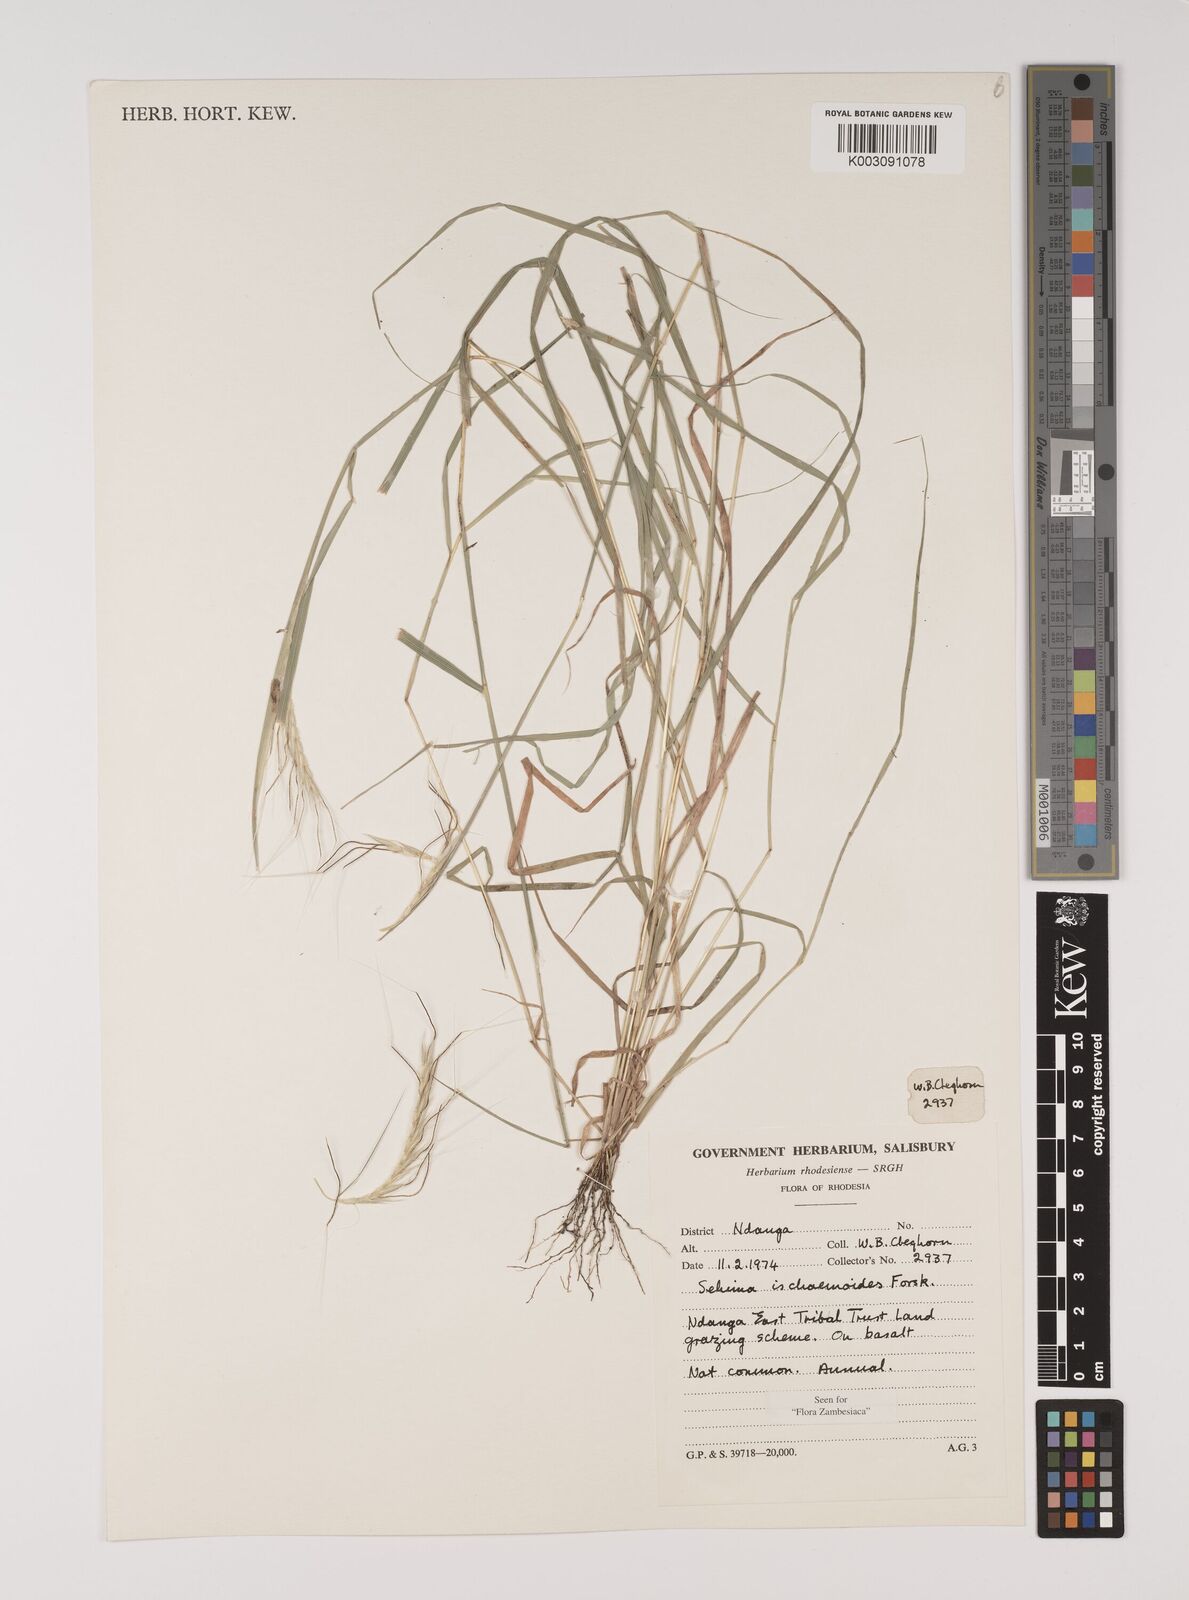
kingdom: Plantae
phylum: Tracheophyta
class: Liliopsida
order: Poales
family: Poaceae
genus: Sehima
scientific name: Sehima ischaemoides
